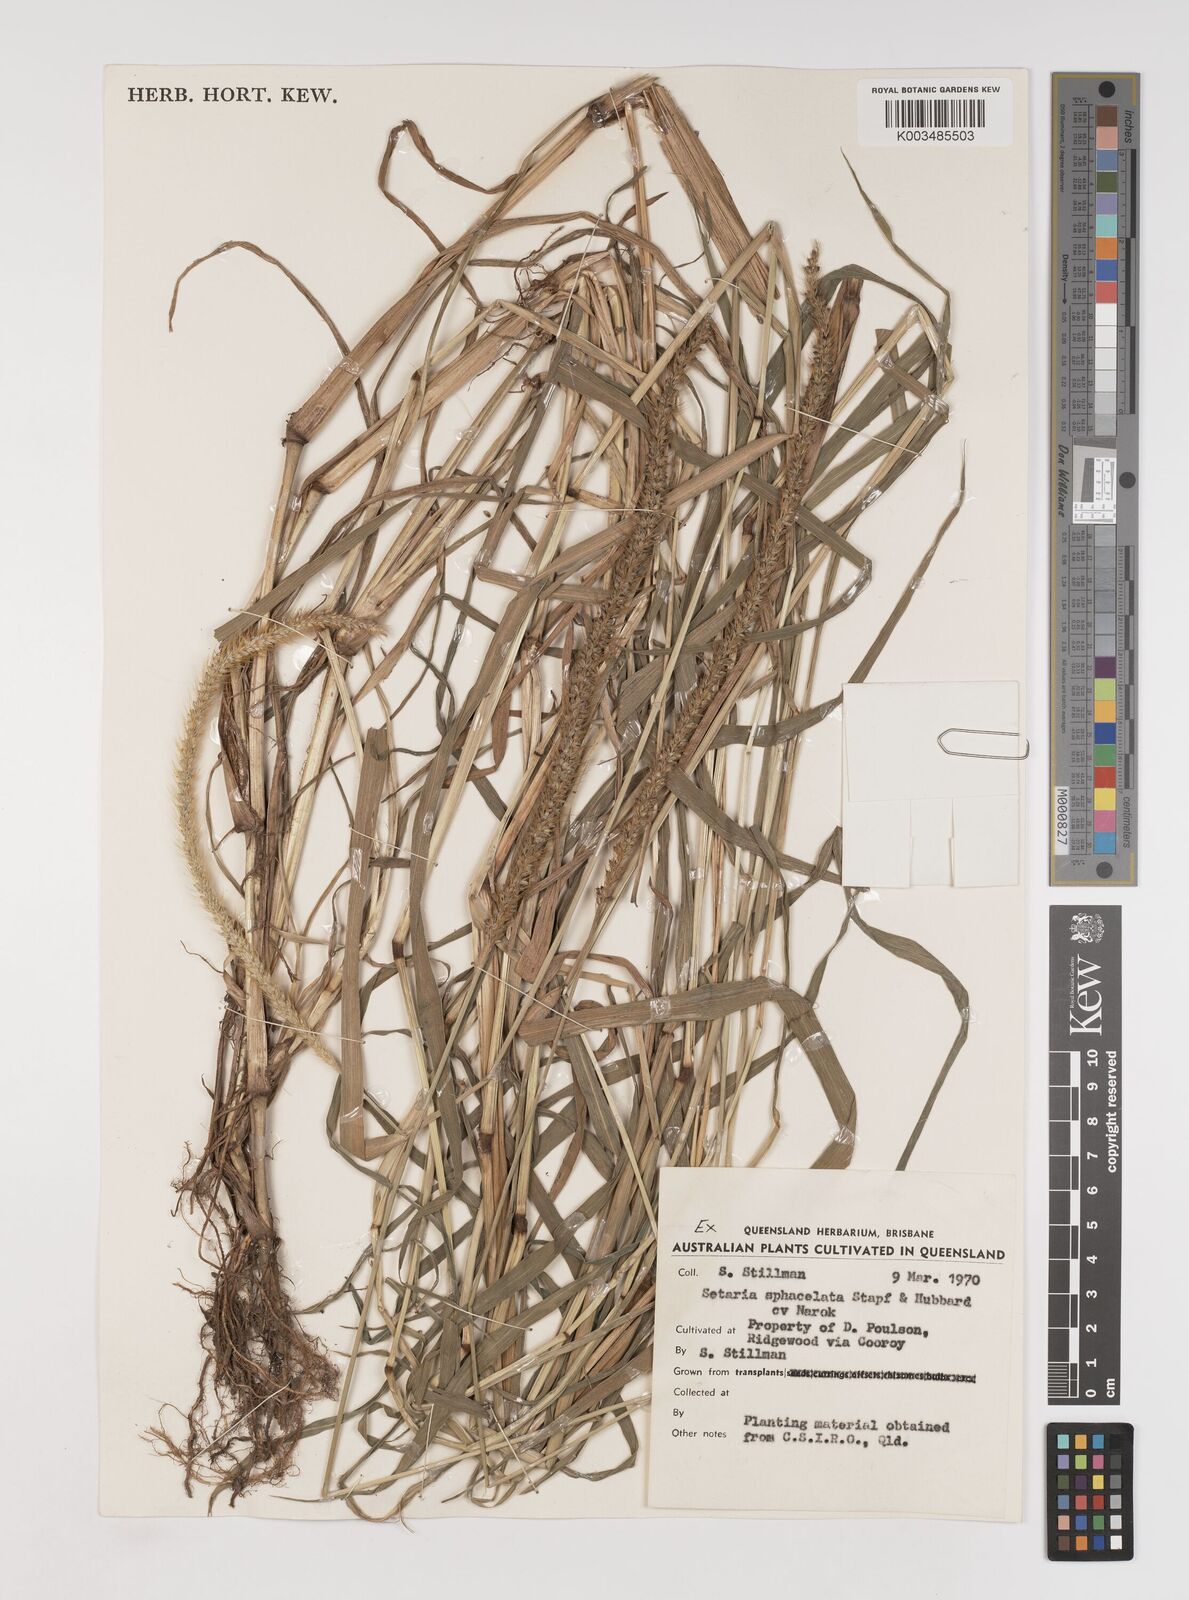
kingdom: Plantae
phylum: Tracheophyta
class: Liliopsida
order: Poales
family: Poaceae
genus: Setaria
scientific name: Setaria sphacelata
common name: African bristlegrass
